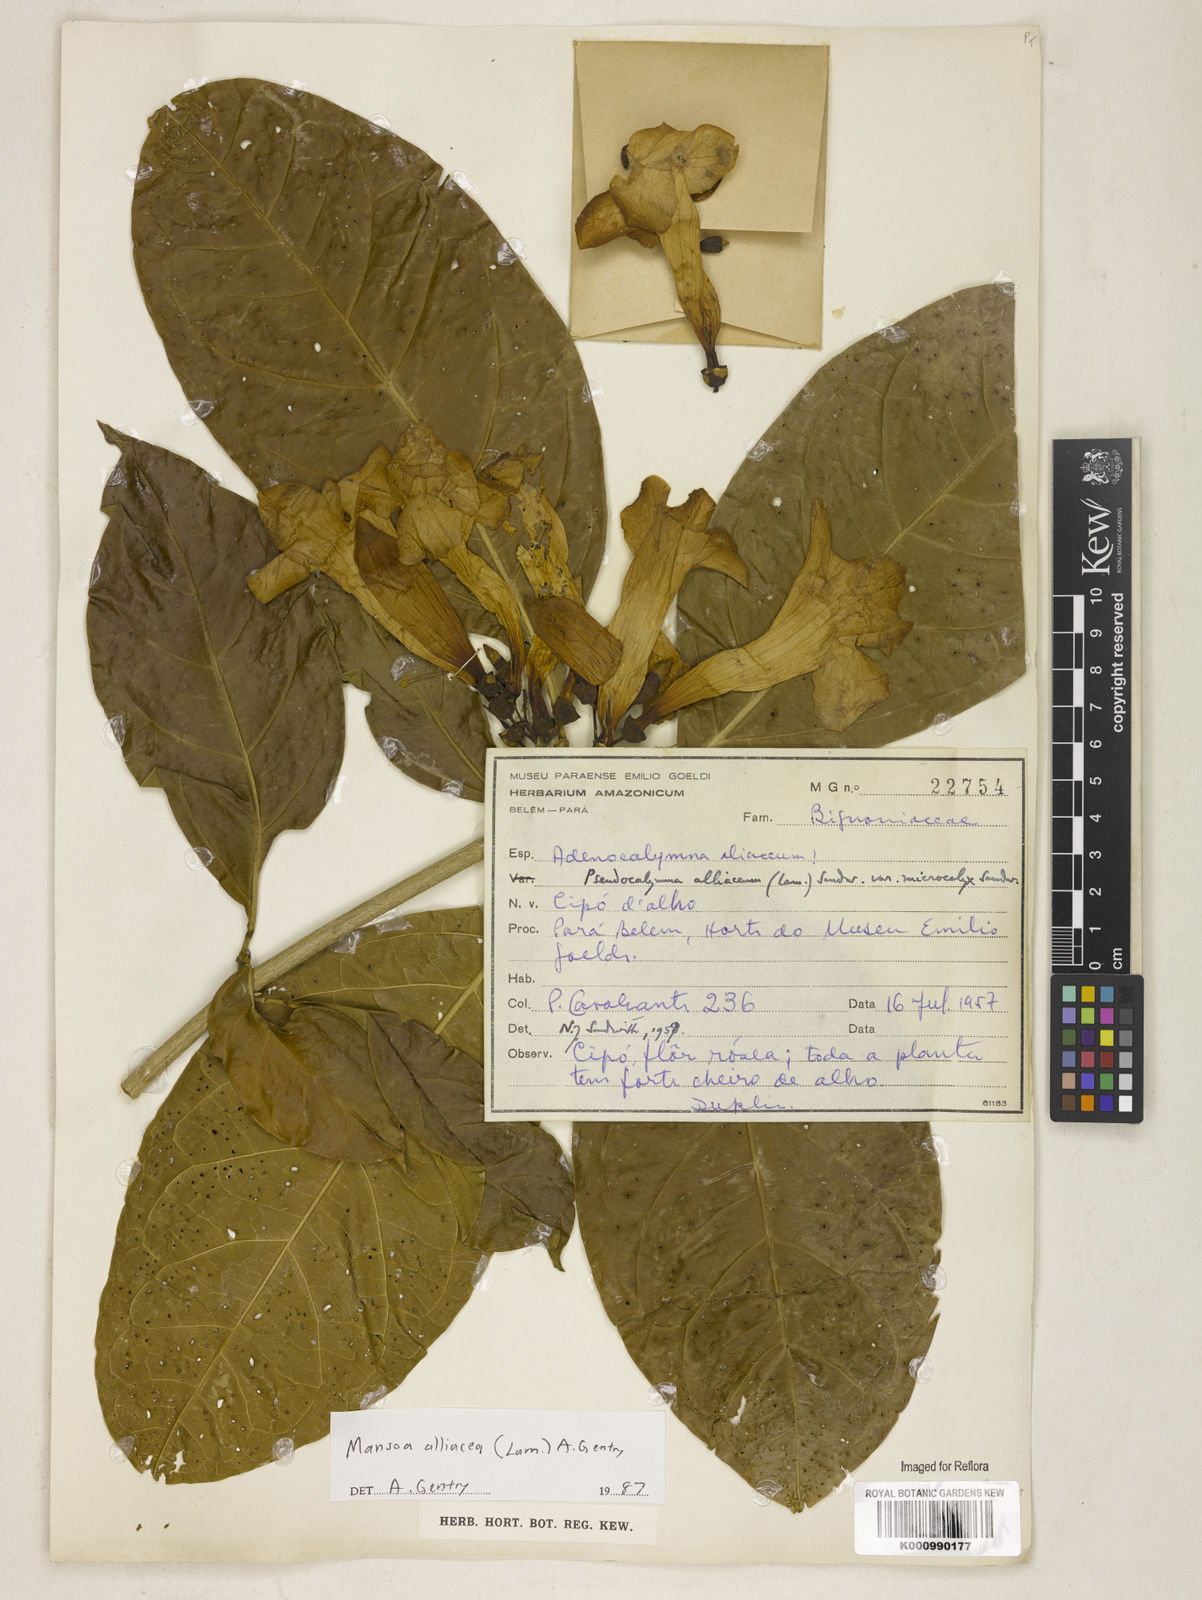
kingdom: Plantae
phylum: Tracheophyta
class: Magnoliopsida
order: Lamiales
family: Bignoniaceae
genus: Mansoa
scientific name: Mansoa alliacea
